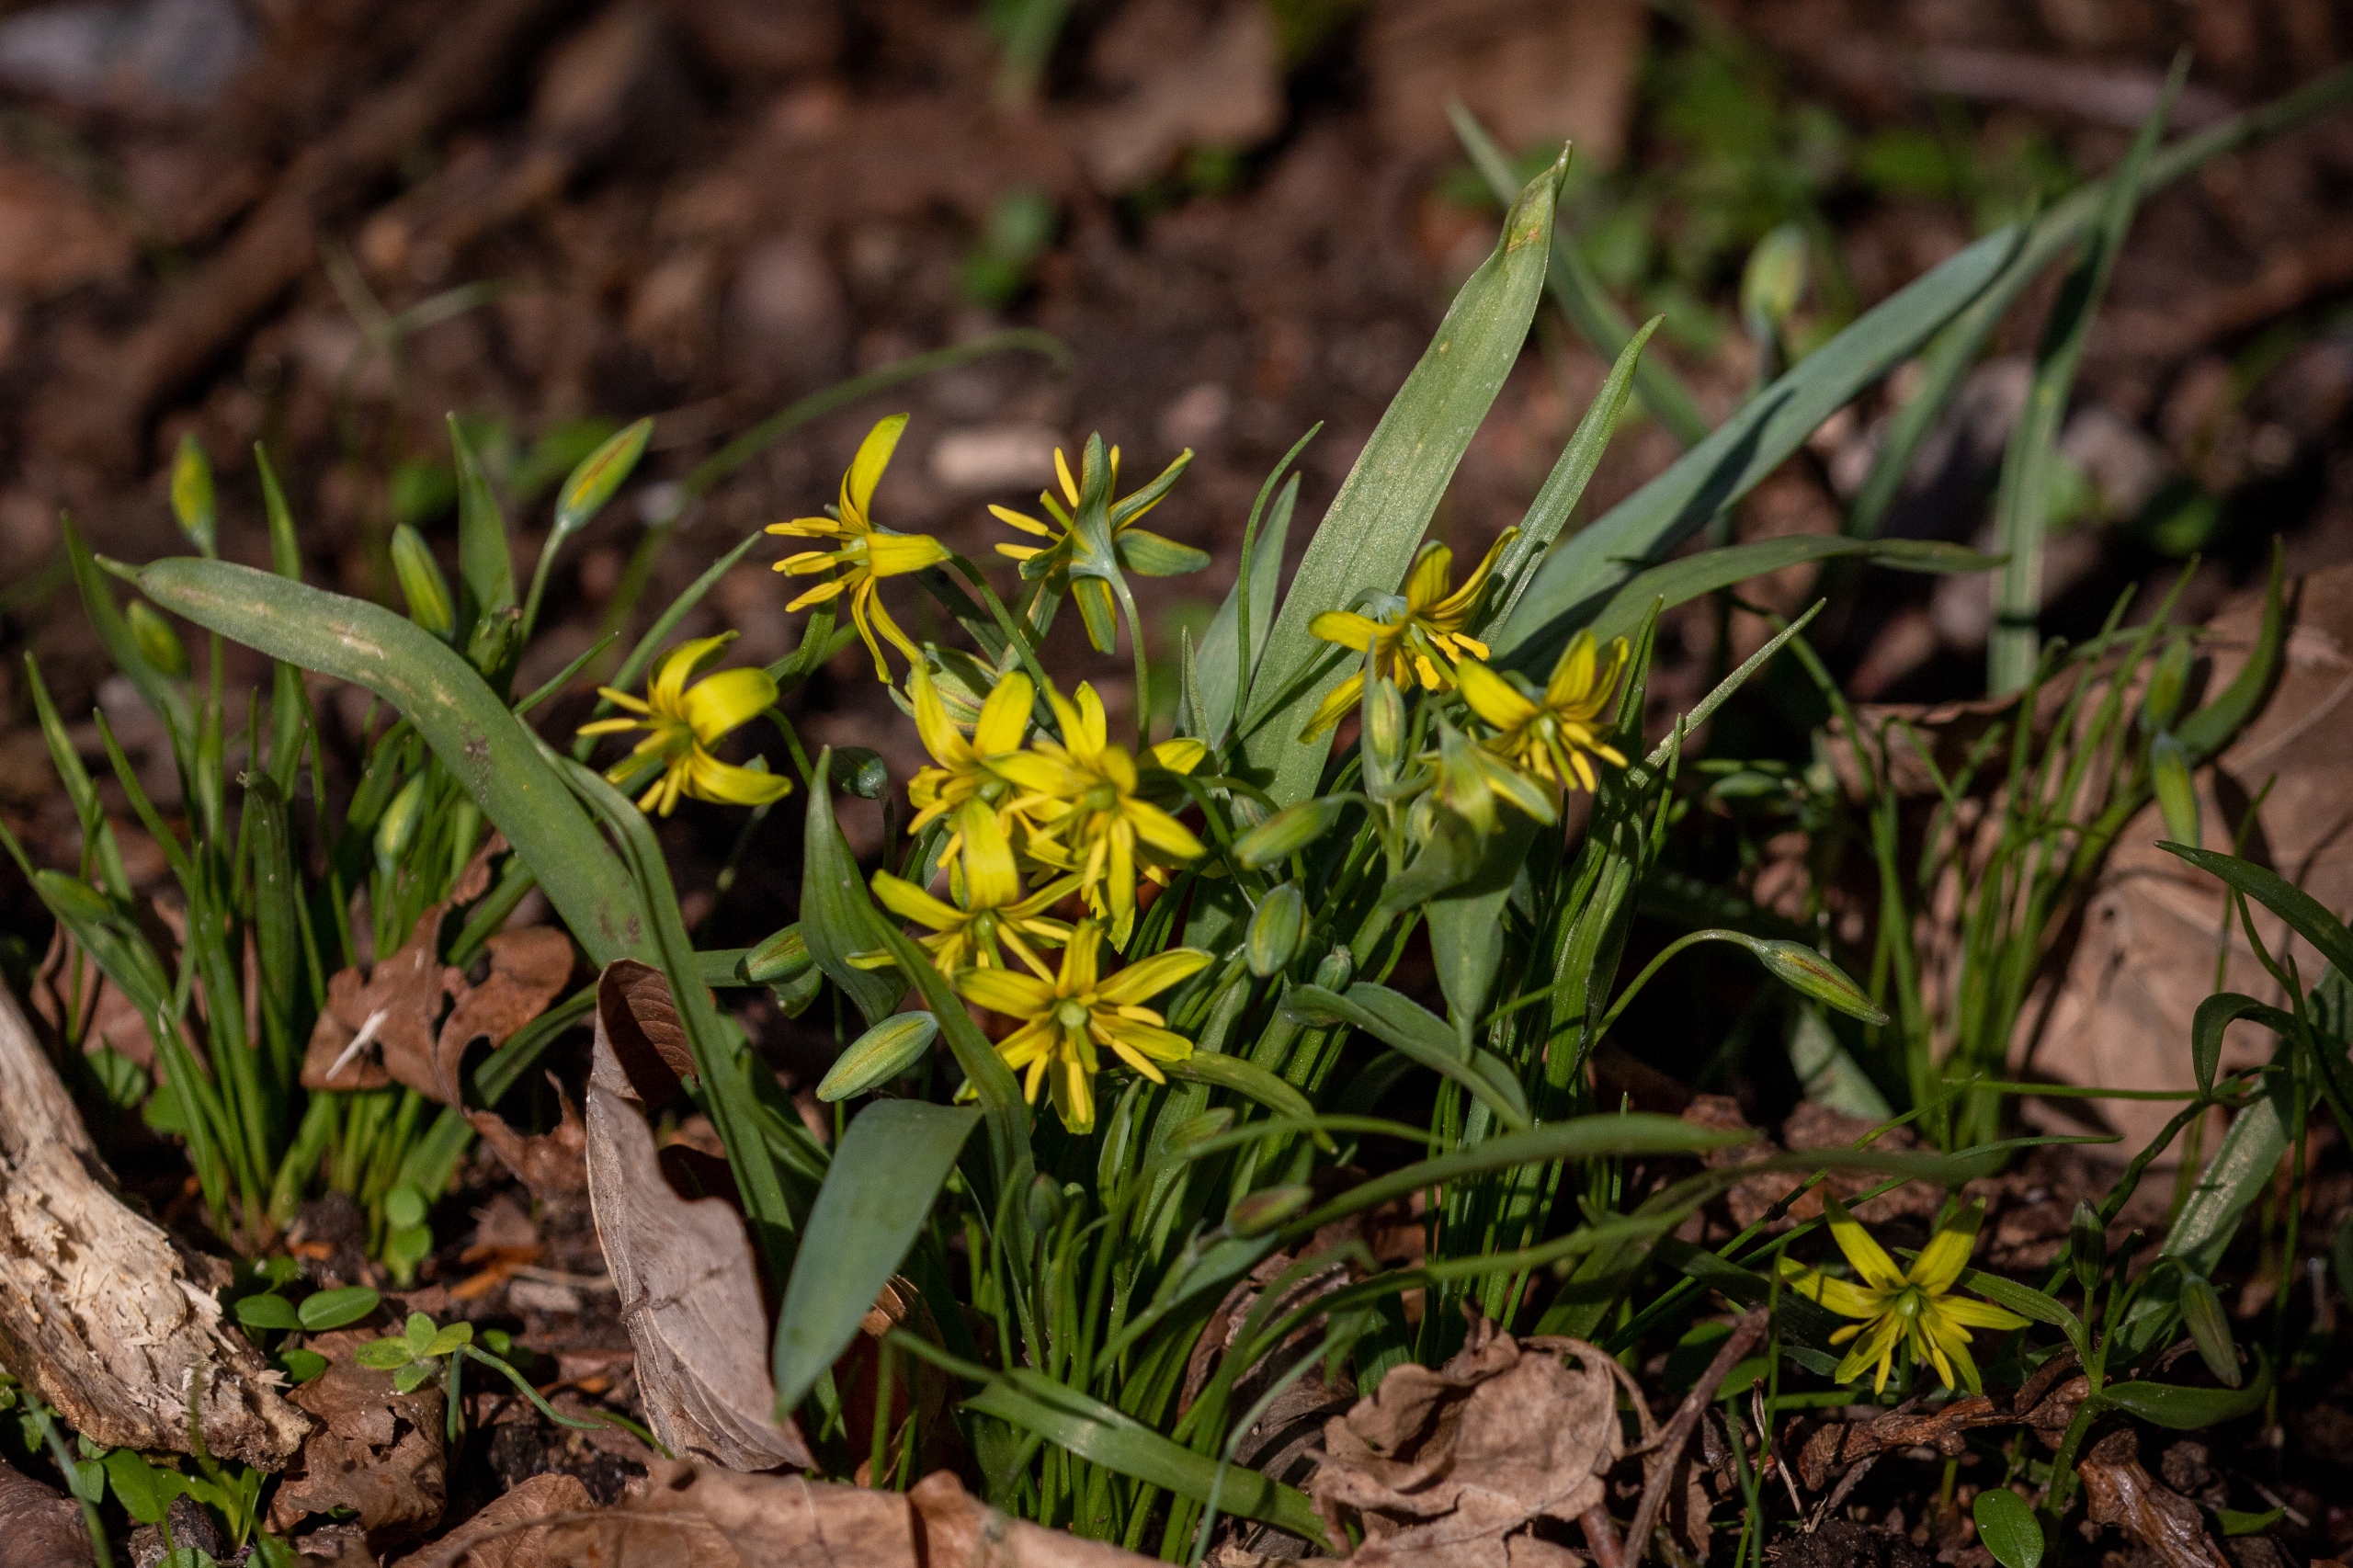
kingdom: Plantae
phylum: Tracheophyta
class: Liliopsida
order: Liliales
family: Liliaceae
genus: Gagea
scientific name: Gagea lutea
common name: Almindelig guldstjerne
